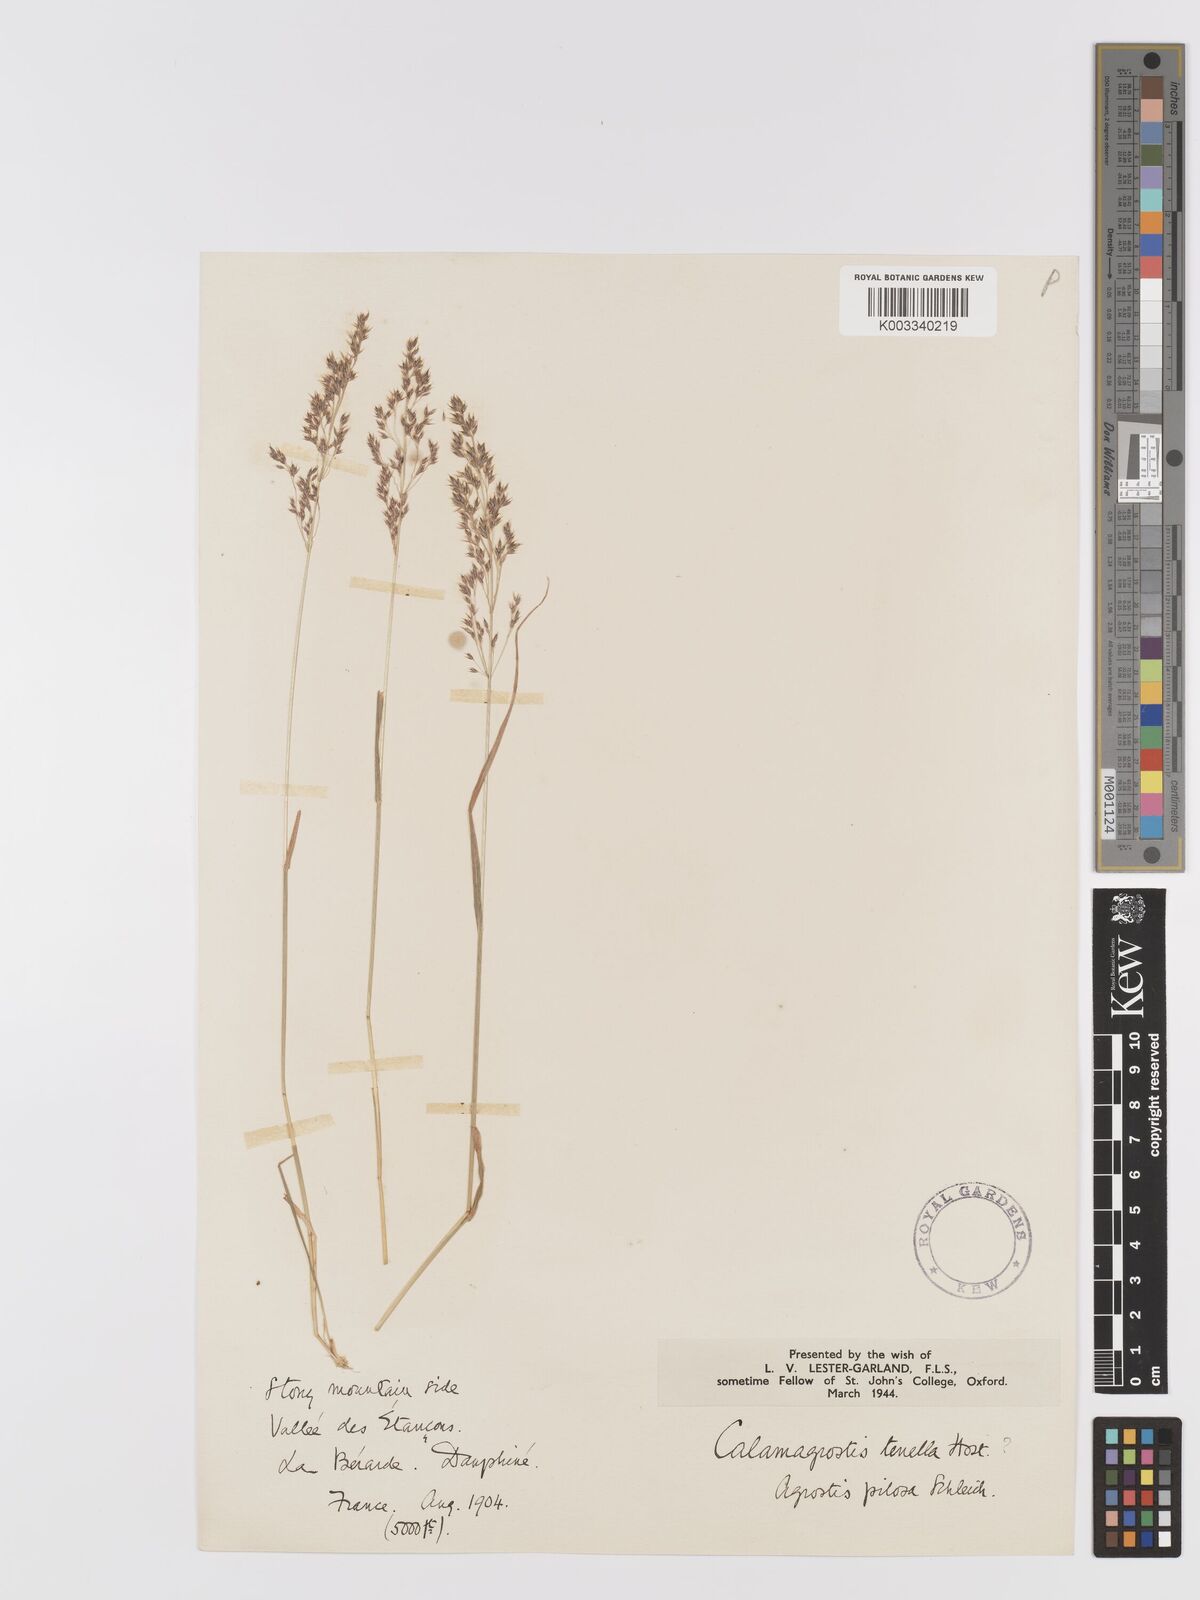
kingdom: Plantae
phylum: Tracheophyta
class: Liliopsida
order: Poales
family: Poaceae
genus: Agrostis
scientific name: Agrostis schraderiana
